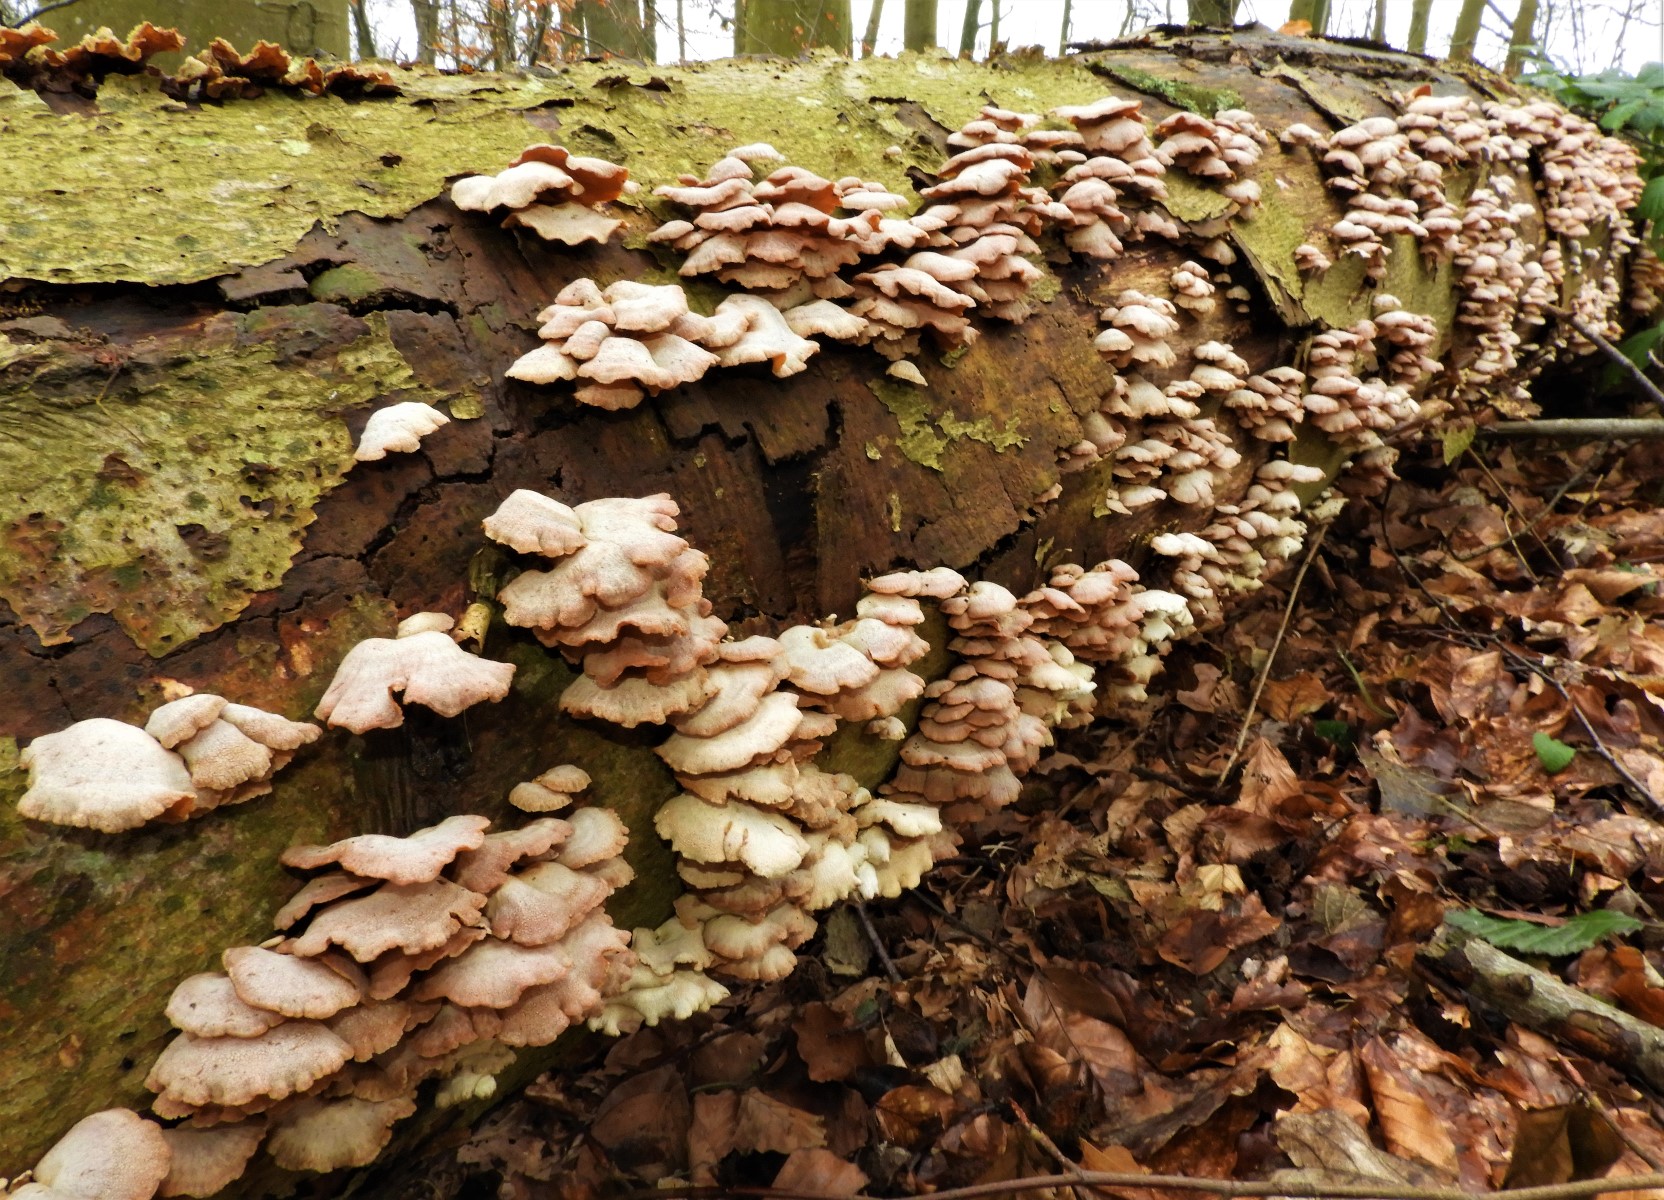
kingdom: Fungi
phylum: Basidiomycota
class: Agaricomycetes
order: Agaricales
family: Mycenaceae
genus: Panellus
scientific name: Panellus stipticus
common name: kliddet epaulethat
